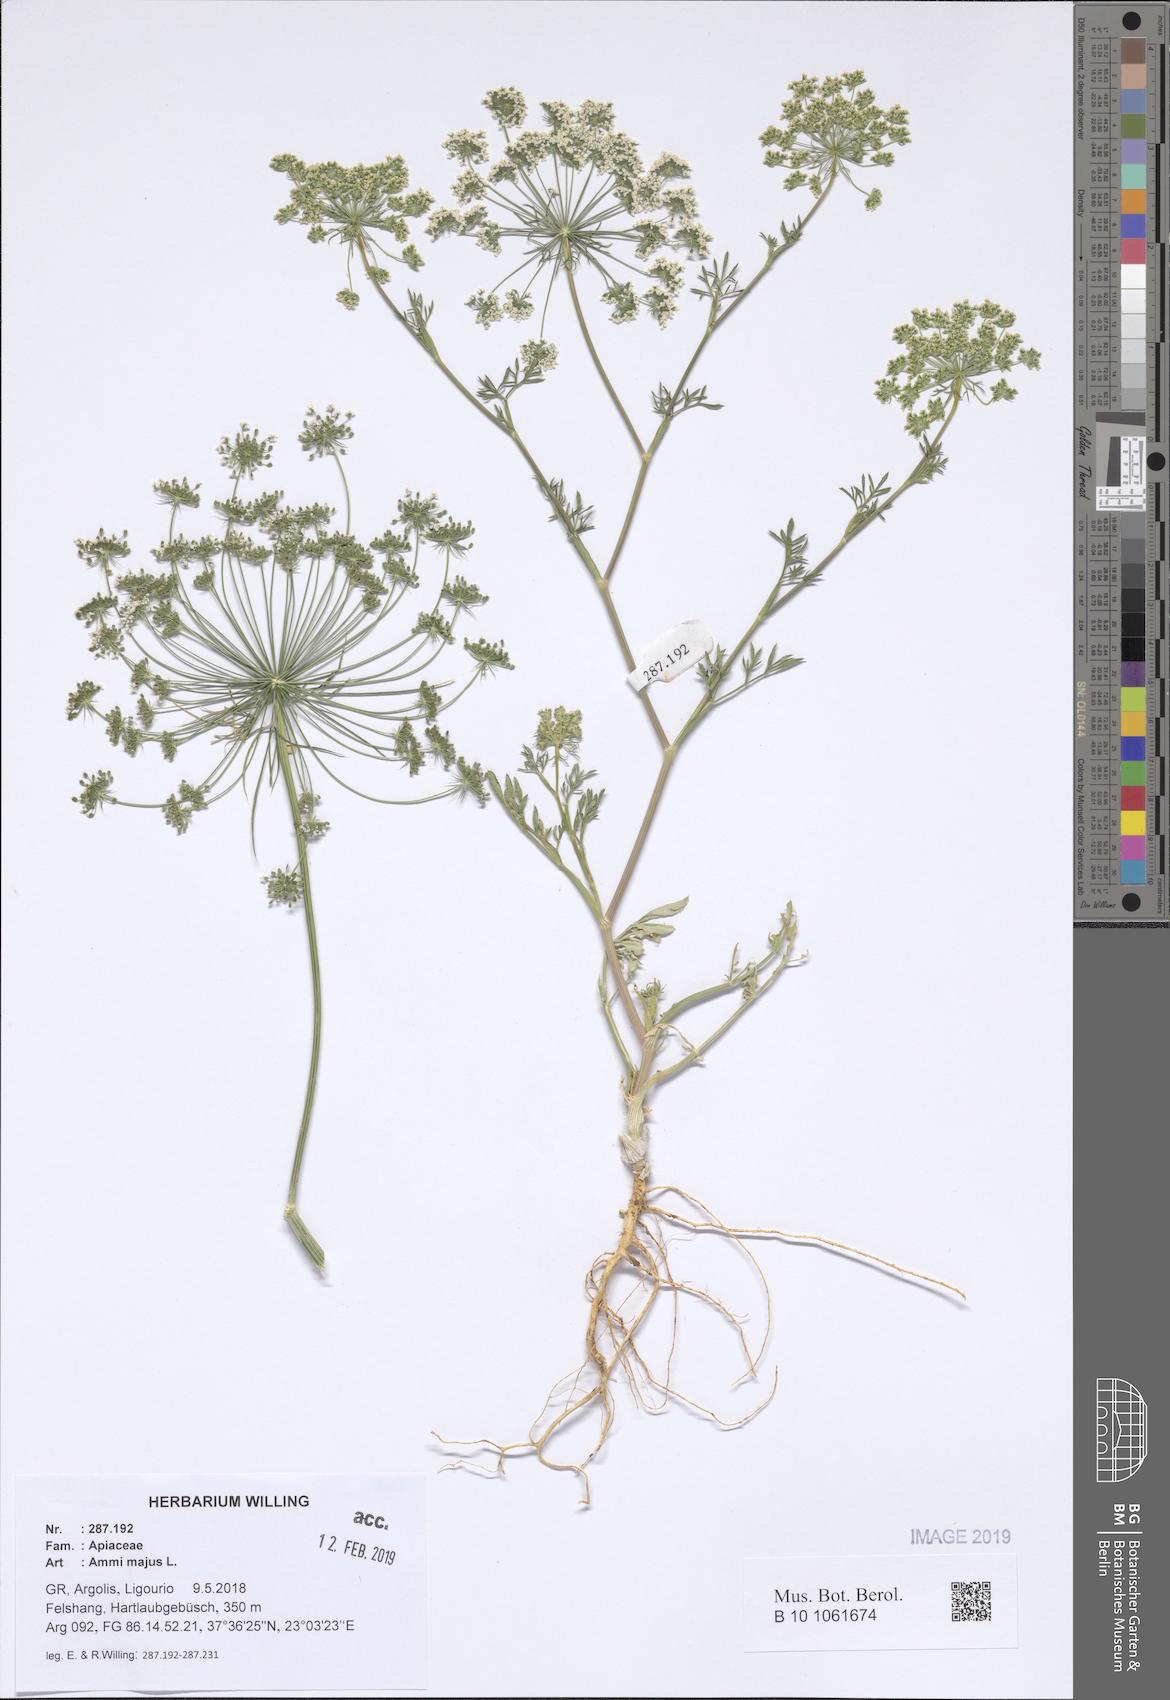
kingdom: Plantae
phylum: Tracheophyta
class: Magnoliopsida
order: Apiales
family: Apiaceae
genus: Ammi
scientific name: Ammi majus
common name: Bullwort
